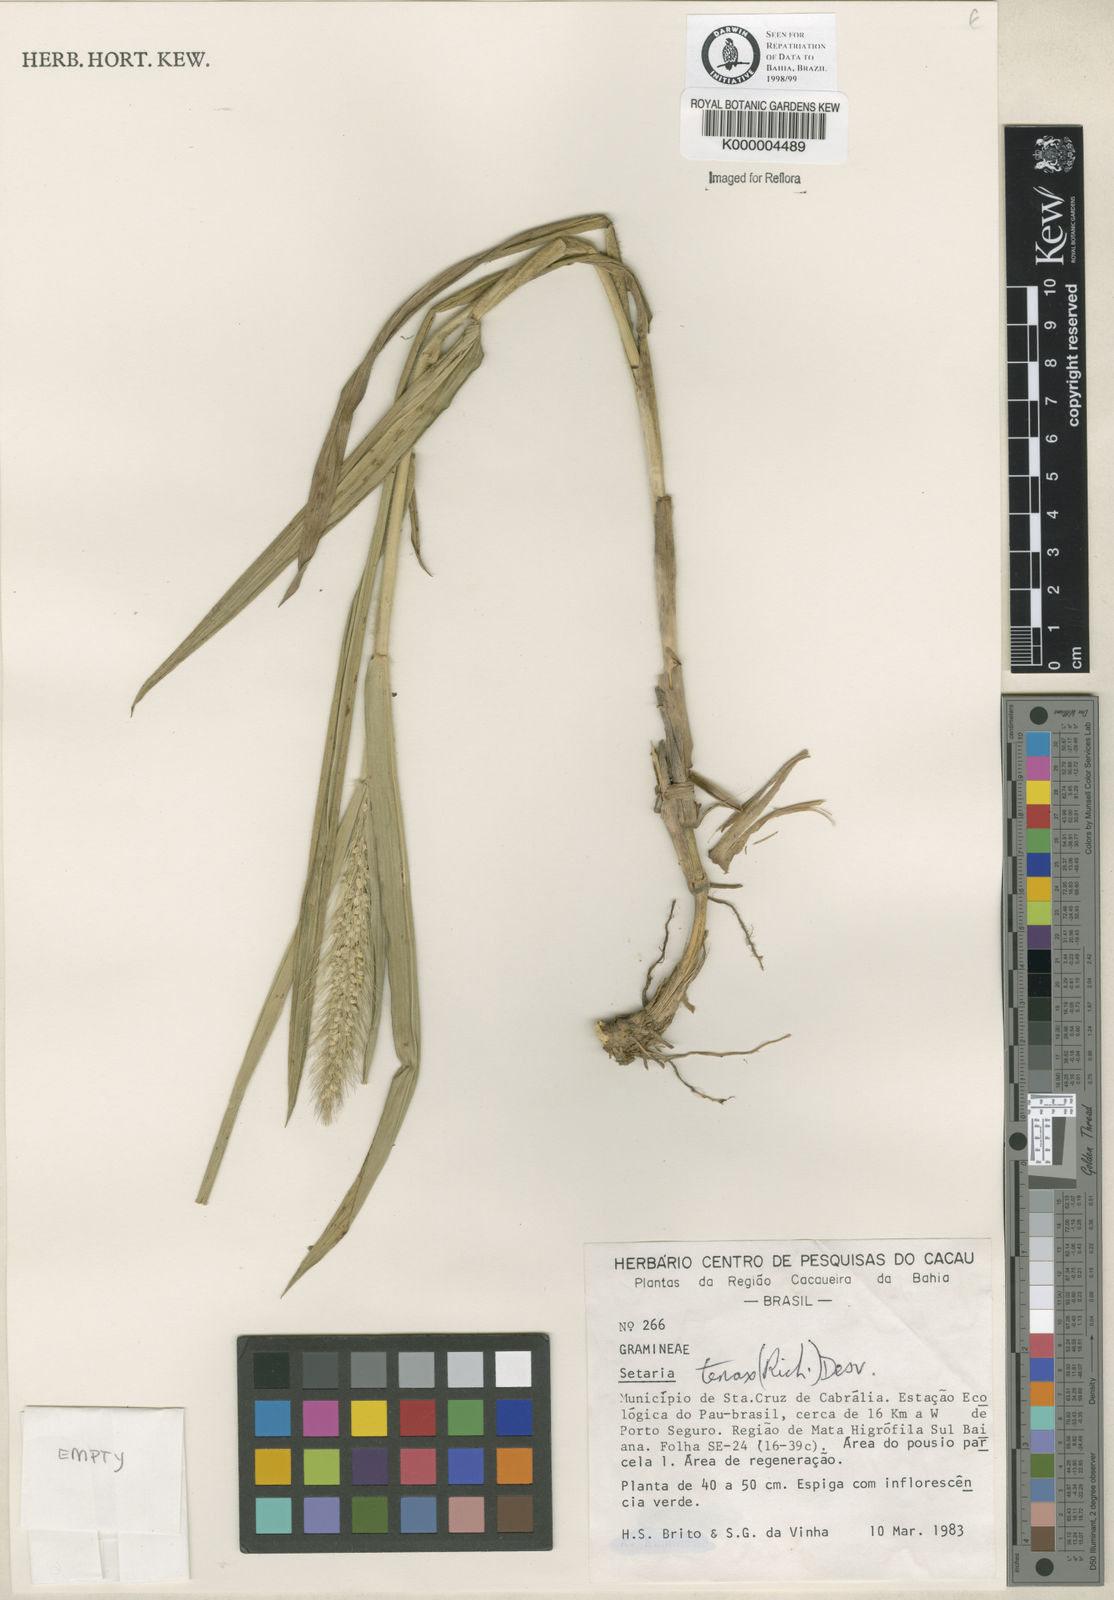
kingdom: Plantae
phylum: Tracheophyta
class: Liliopsida
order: Poales
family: Poaceae
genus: Setaria
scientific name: Setaria tenax
